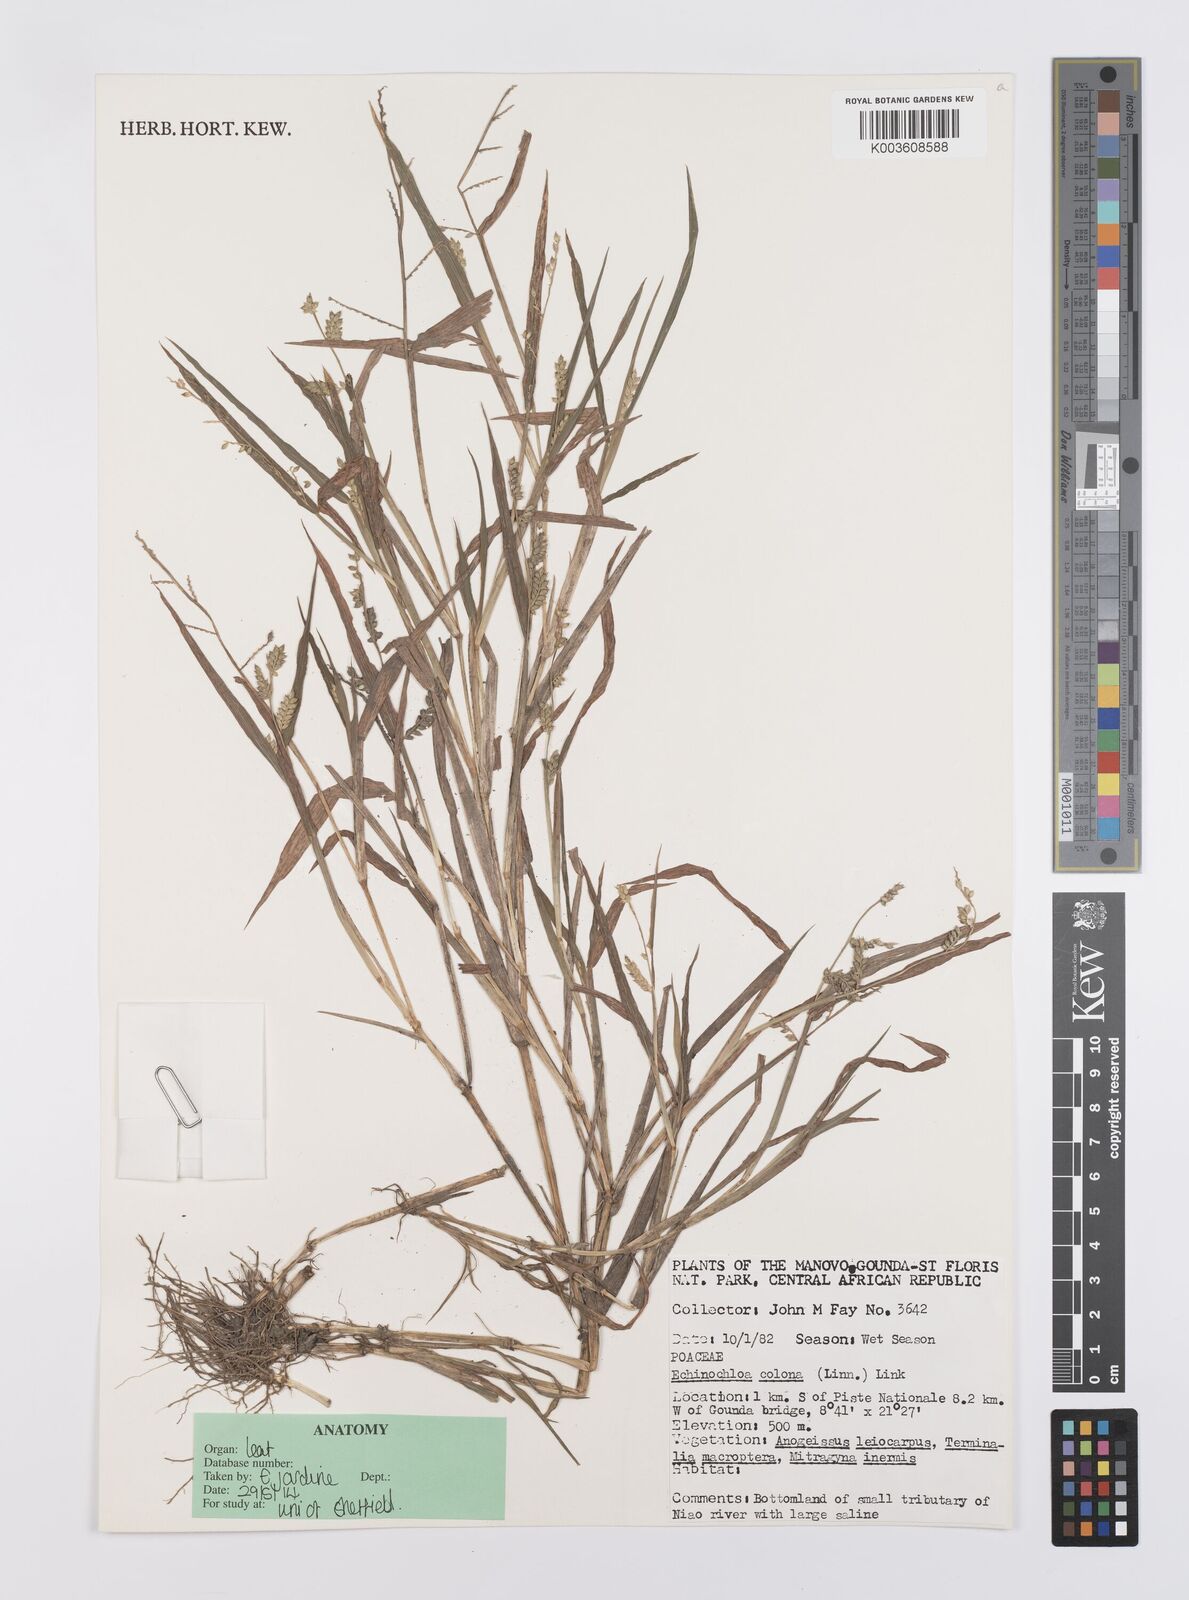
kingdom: Plantae
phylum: Tracheophyta
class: Liliopsida
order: Poales
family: Poaceae
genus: Echinochloa
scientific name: Echinochloa colonum
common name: Jungle rice
